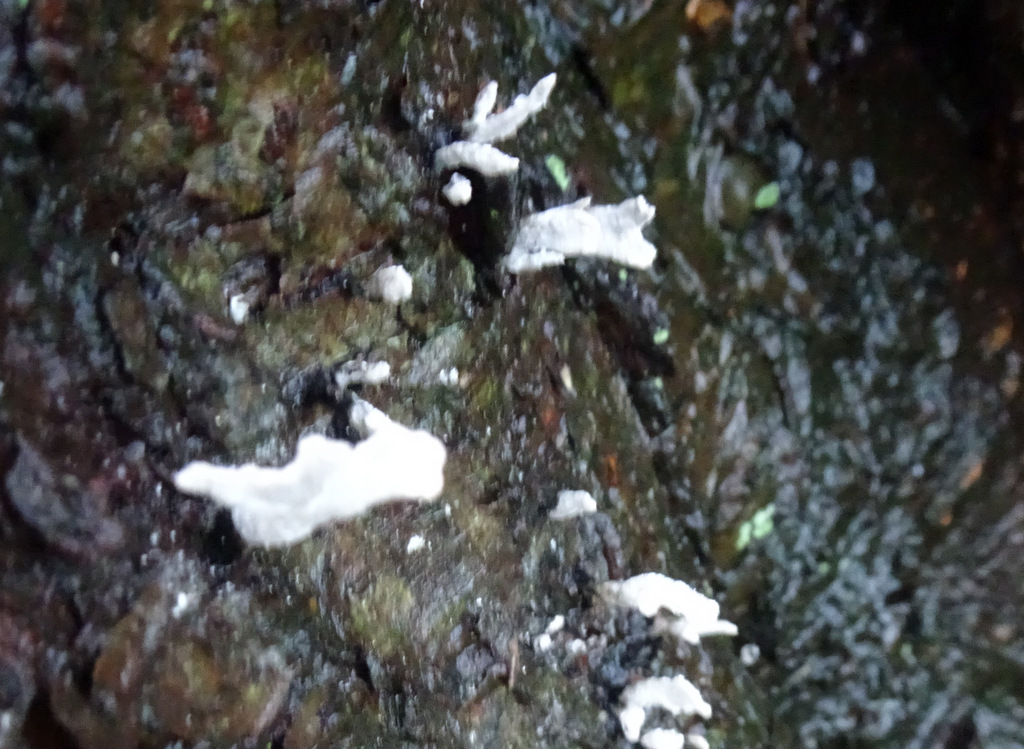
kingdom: Fungi
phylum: Ascomycota
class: Sordariomycetes
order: Xylariales
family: Xylariaceae
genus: Xylaria
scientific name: Xylaria hypoxylon
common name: grenet stødsvamp
